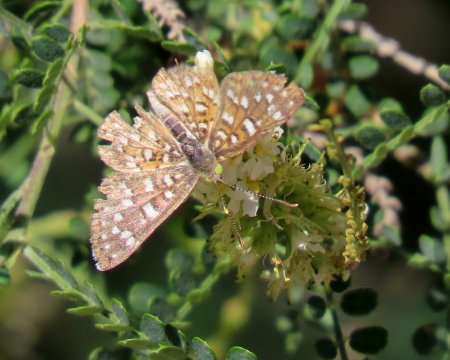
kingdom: Animalia
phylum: Arthropoda
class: Insecta
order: Lepidoptera
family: Riodinidae
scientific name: Riodinidae
